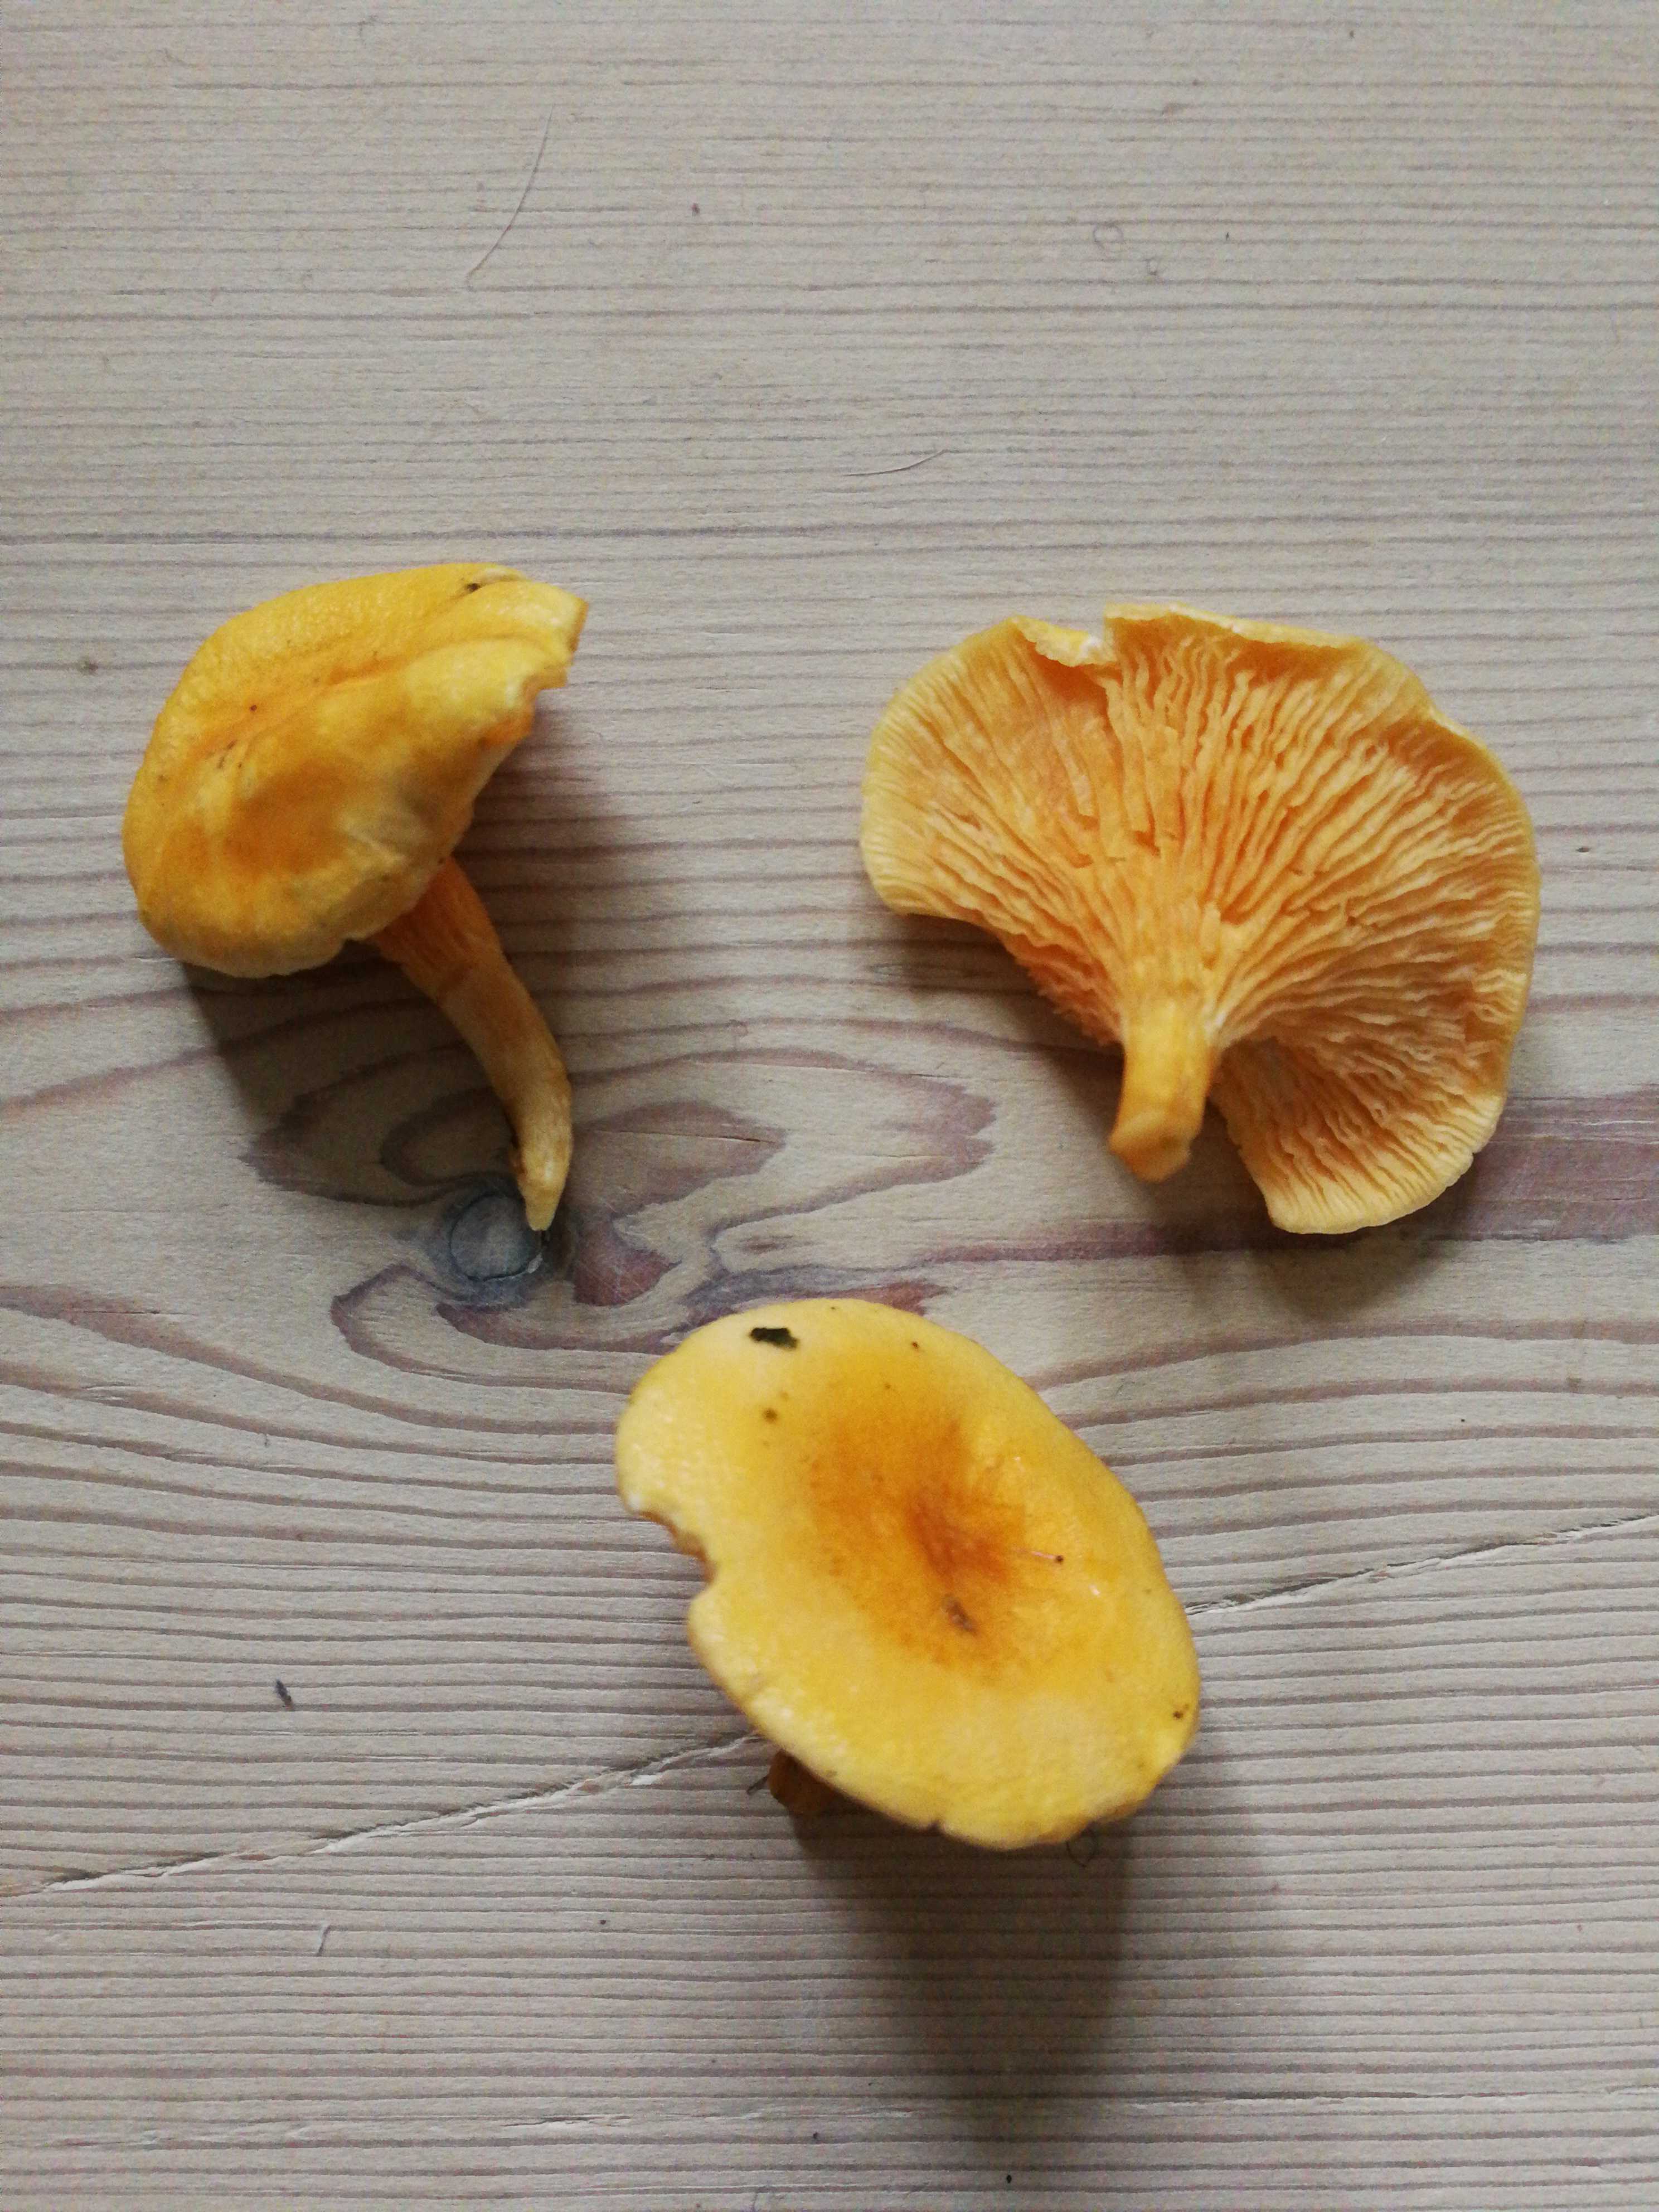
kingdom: Fungi
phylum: Basidiomycota
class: Agaricomycetes
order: Boletales
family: Hygrophoropsidaceae
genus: Hygrophoropsis
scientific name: Hygrophoropsis aurantiaca
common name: almindelig orangekantarel
